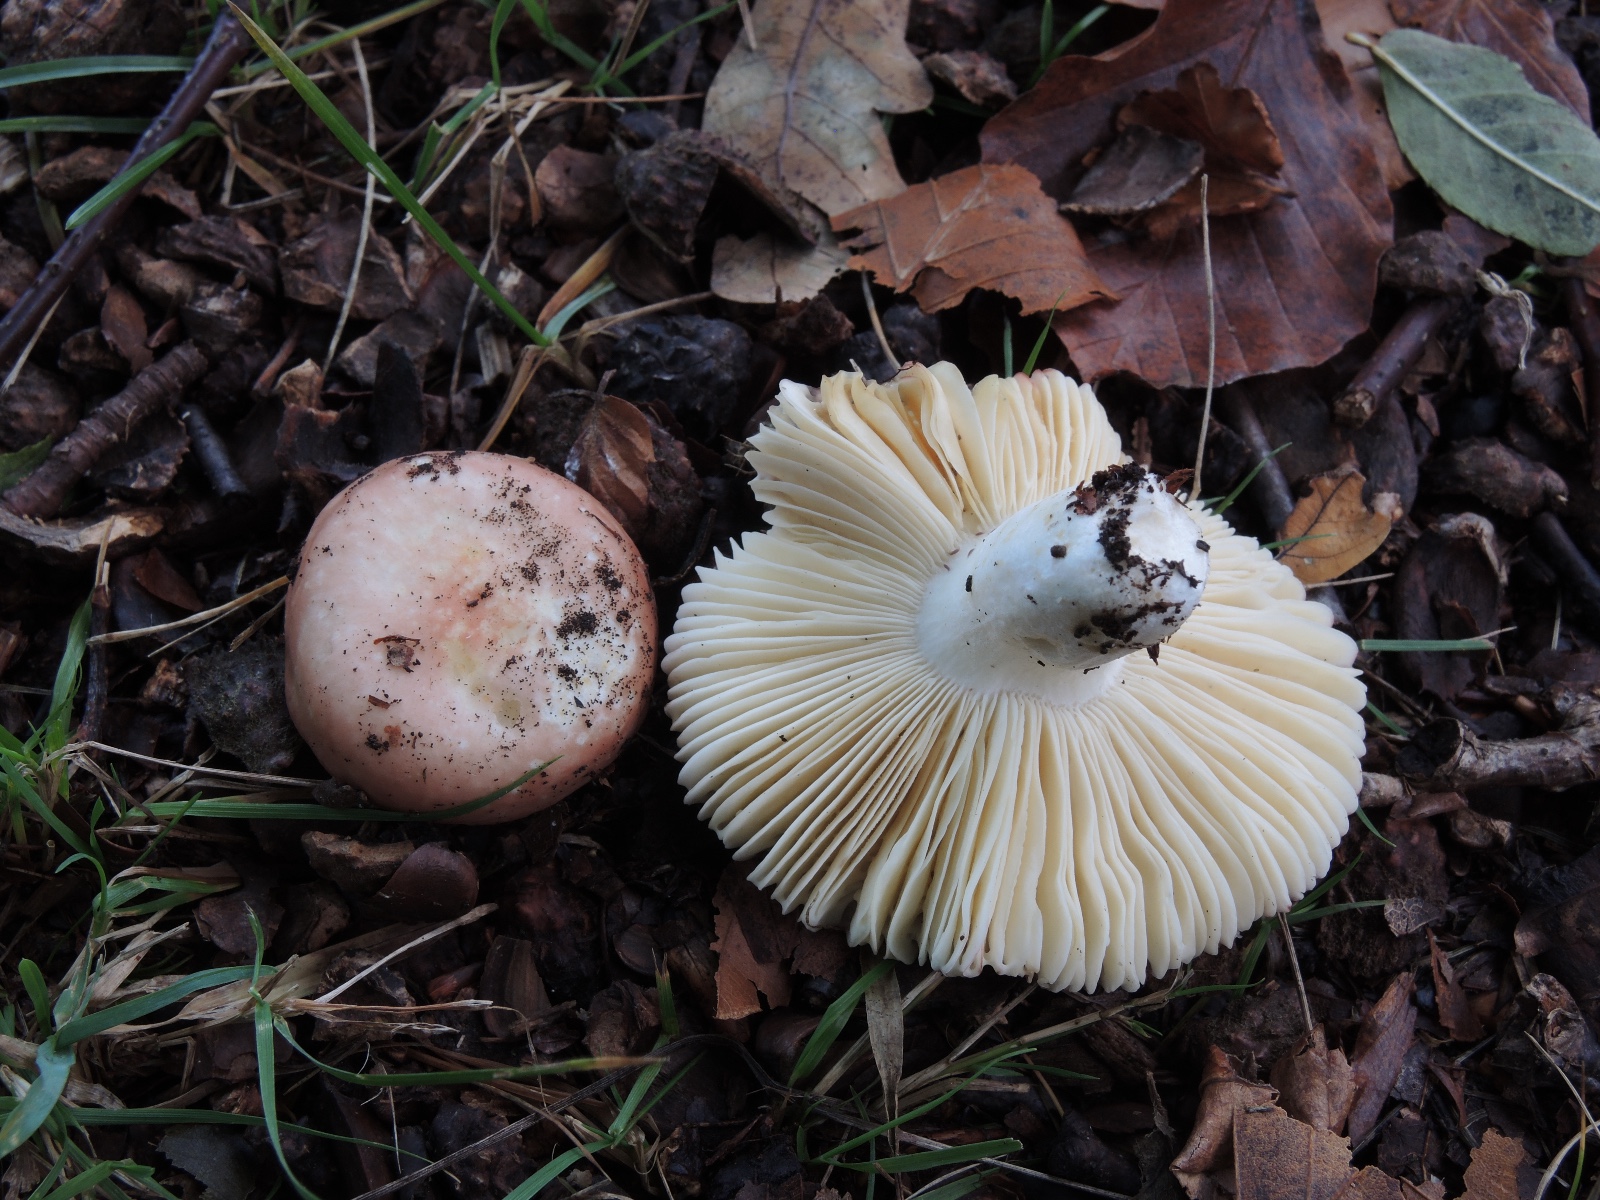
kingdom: Fungi
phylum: Basidiomycota
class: Agaricomycetes
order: Russulales
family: Russulaceae
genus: Russula
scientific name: Russula
